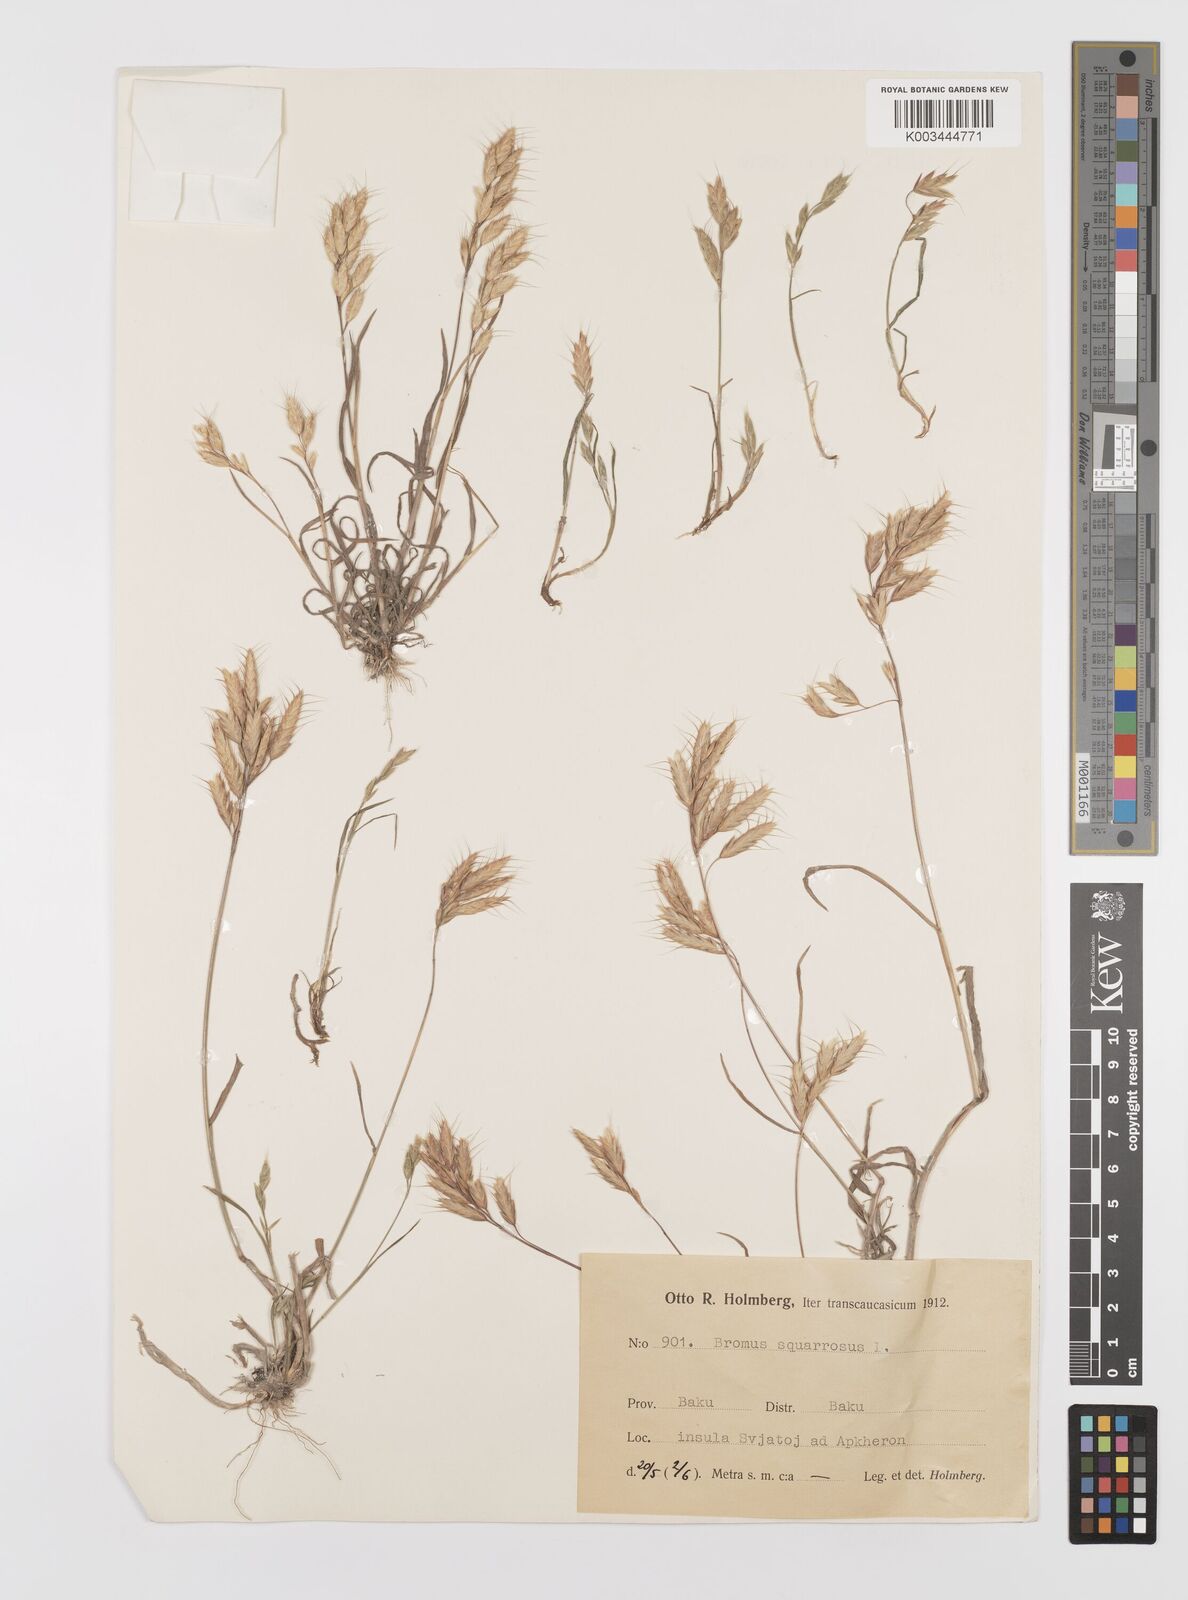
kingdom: Plantae
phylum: Tracheophyta
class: Liliopsida
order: Poales
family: Poaceae
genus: Bromus
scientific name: Bromus squarrosus
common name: Corn brome
